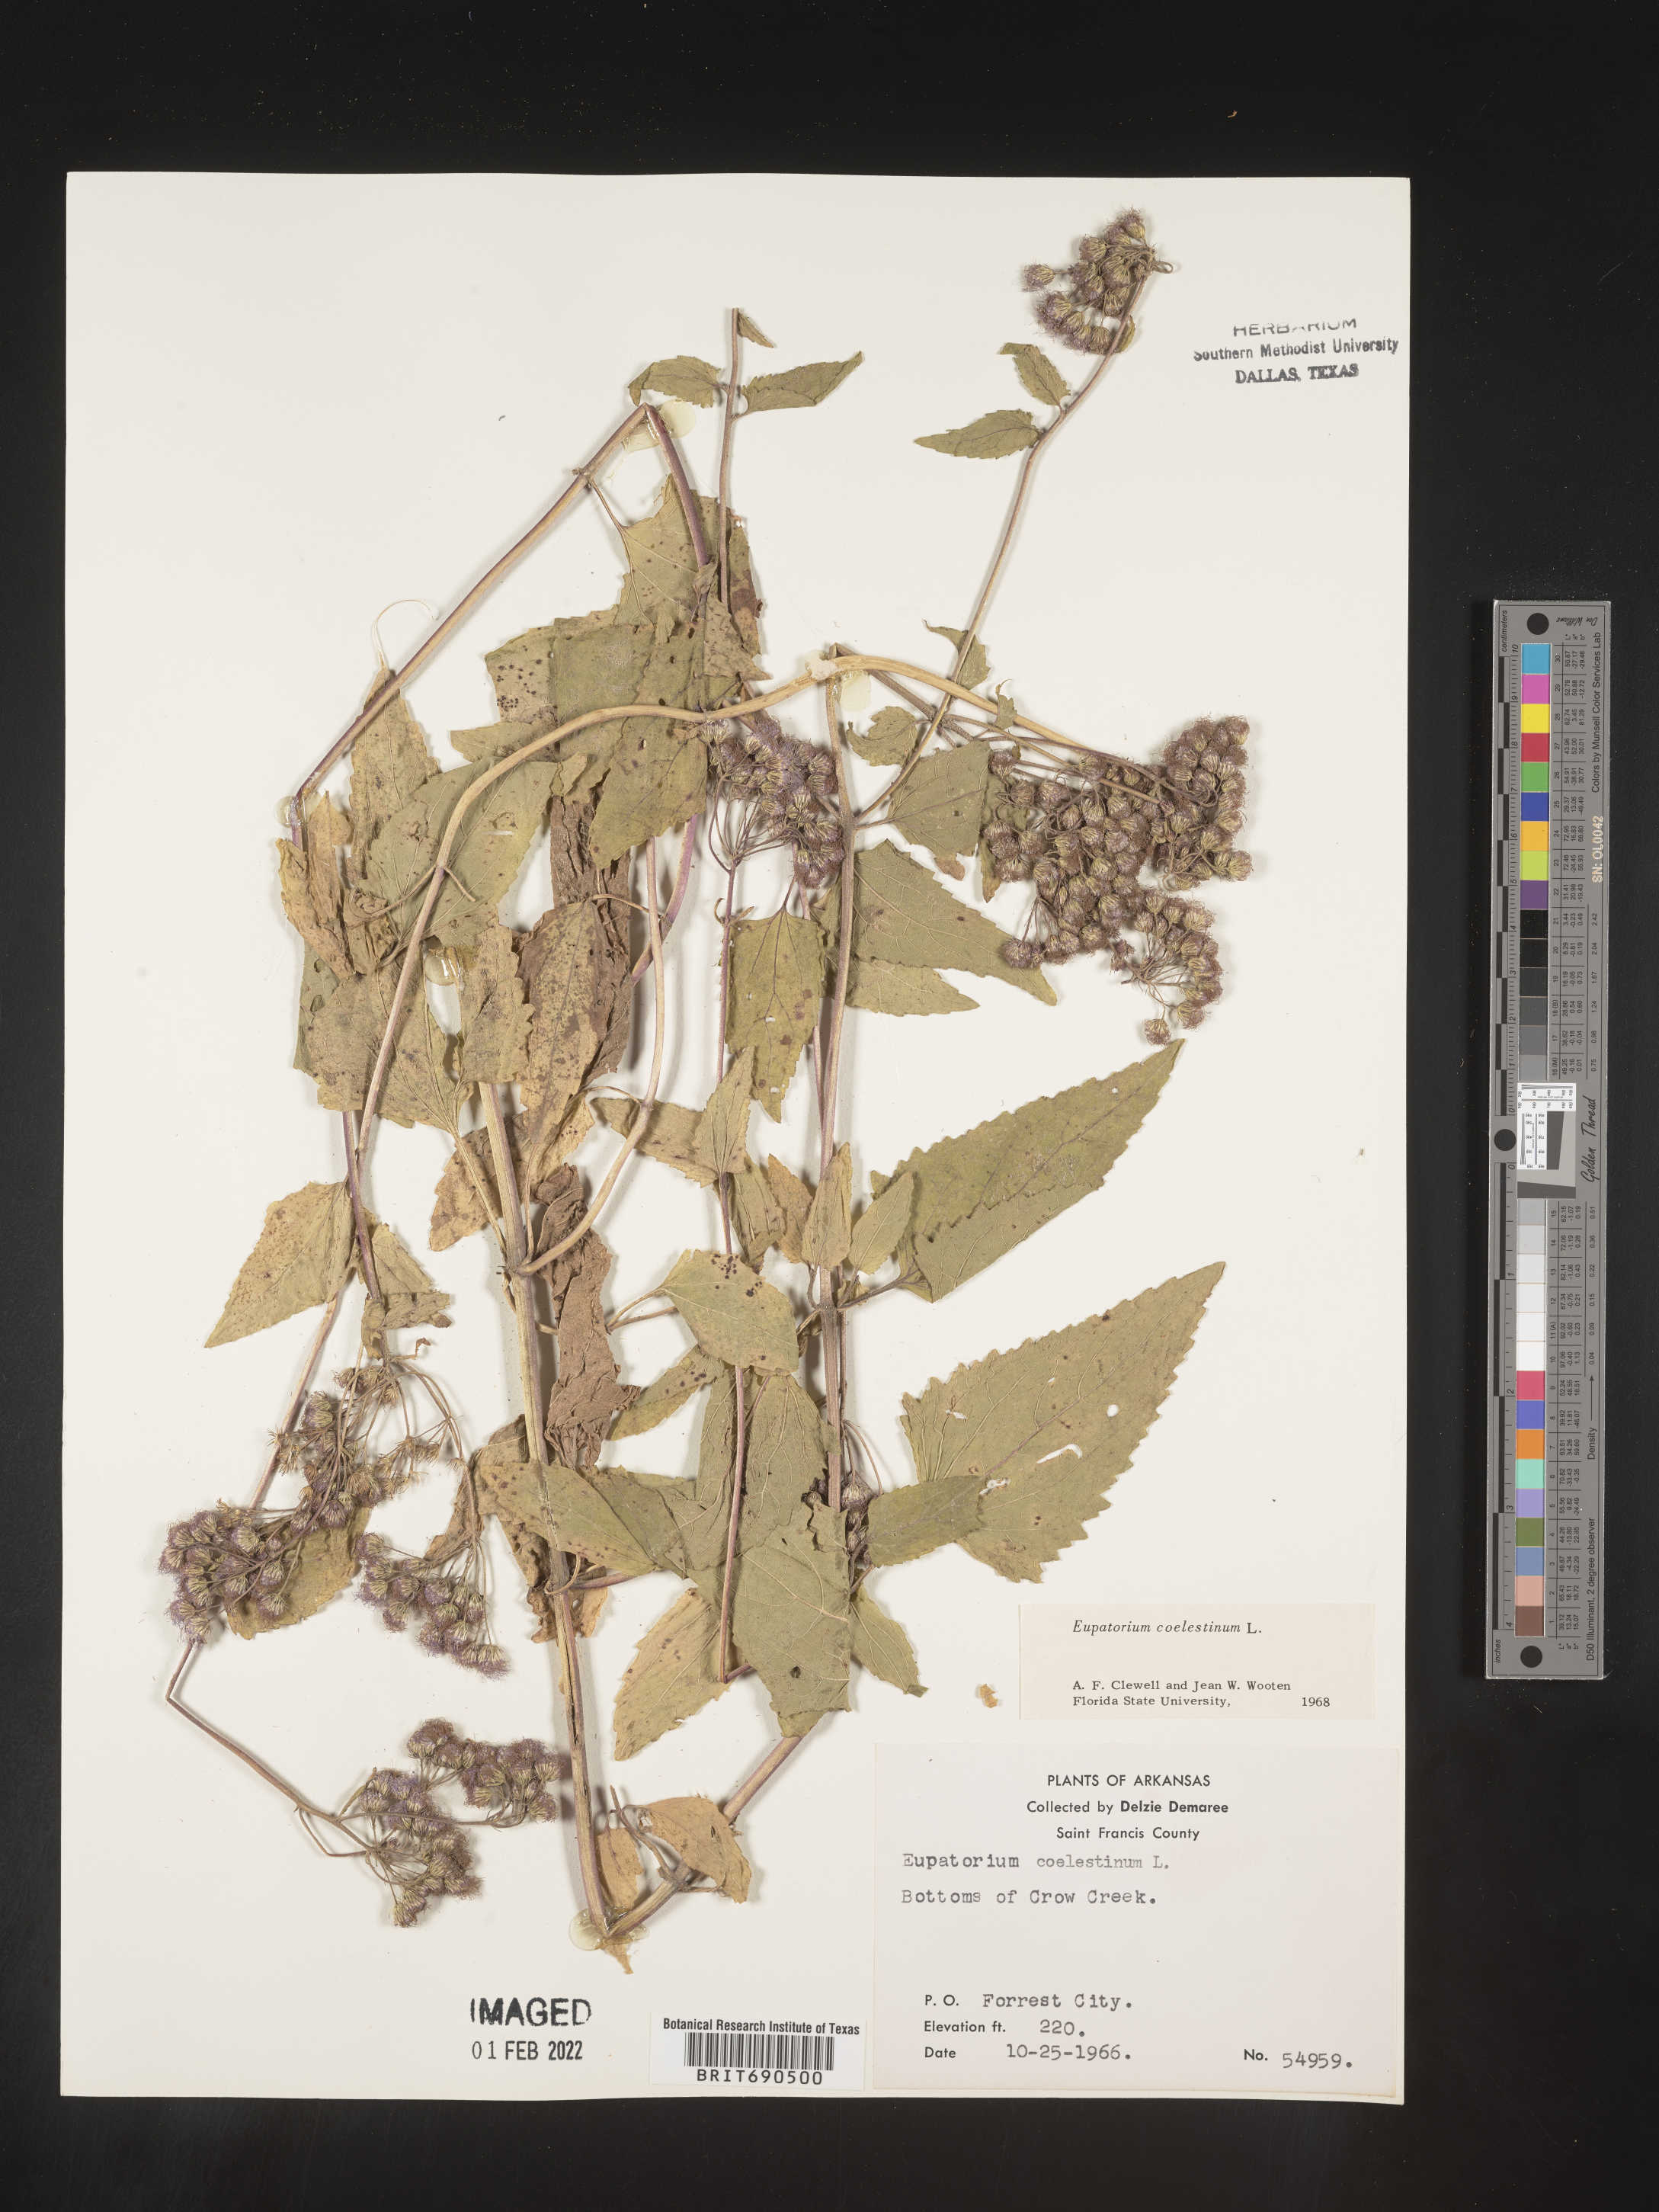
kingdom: Plantae
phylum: Tracheophyta
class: Magnoliopsida
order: Asterales
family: Asteraceae
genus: Conoclinium
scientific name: Conoclinium coelestinum
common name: Blue mistflower
